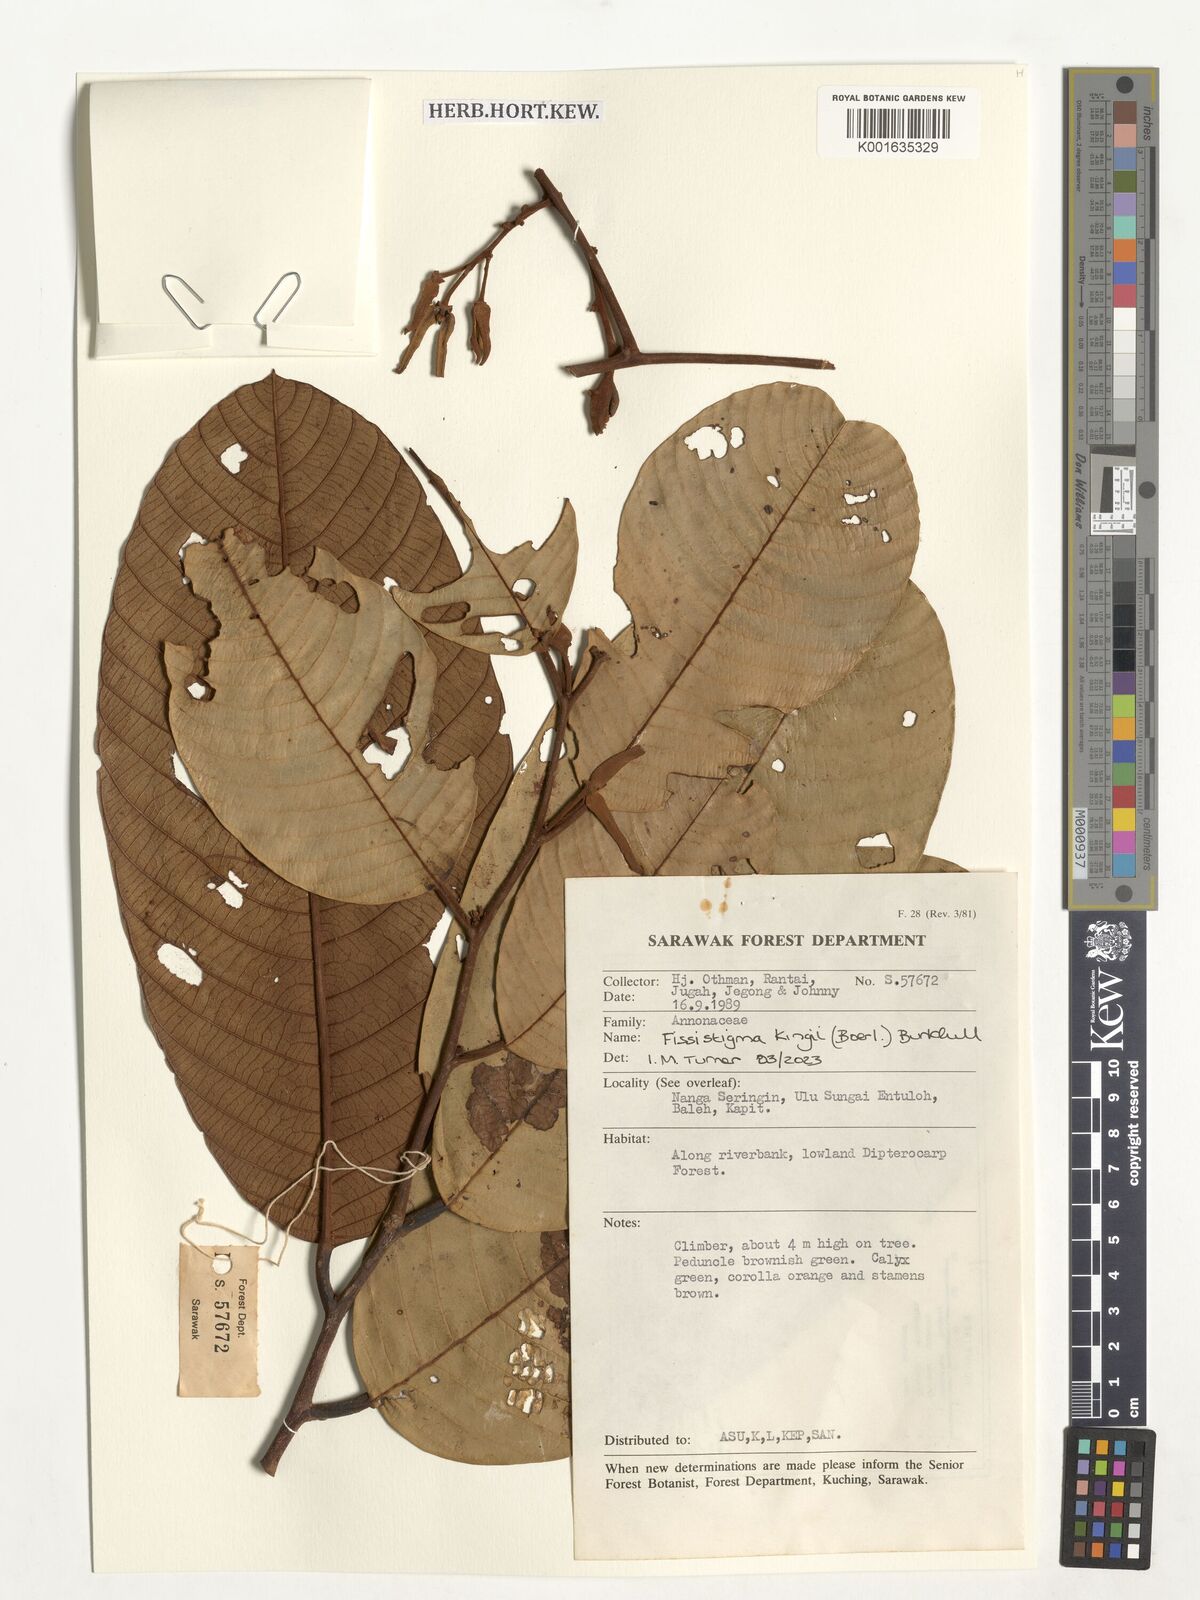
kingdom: Plantae
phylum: Tracheophyta
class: Magnoliopsida
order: Magnoliales
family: Annonaceae
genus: Fissistigma
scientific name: Fissistigma kingii
